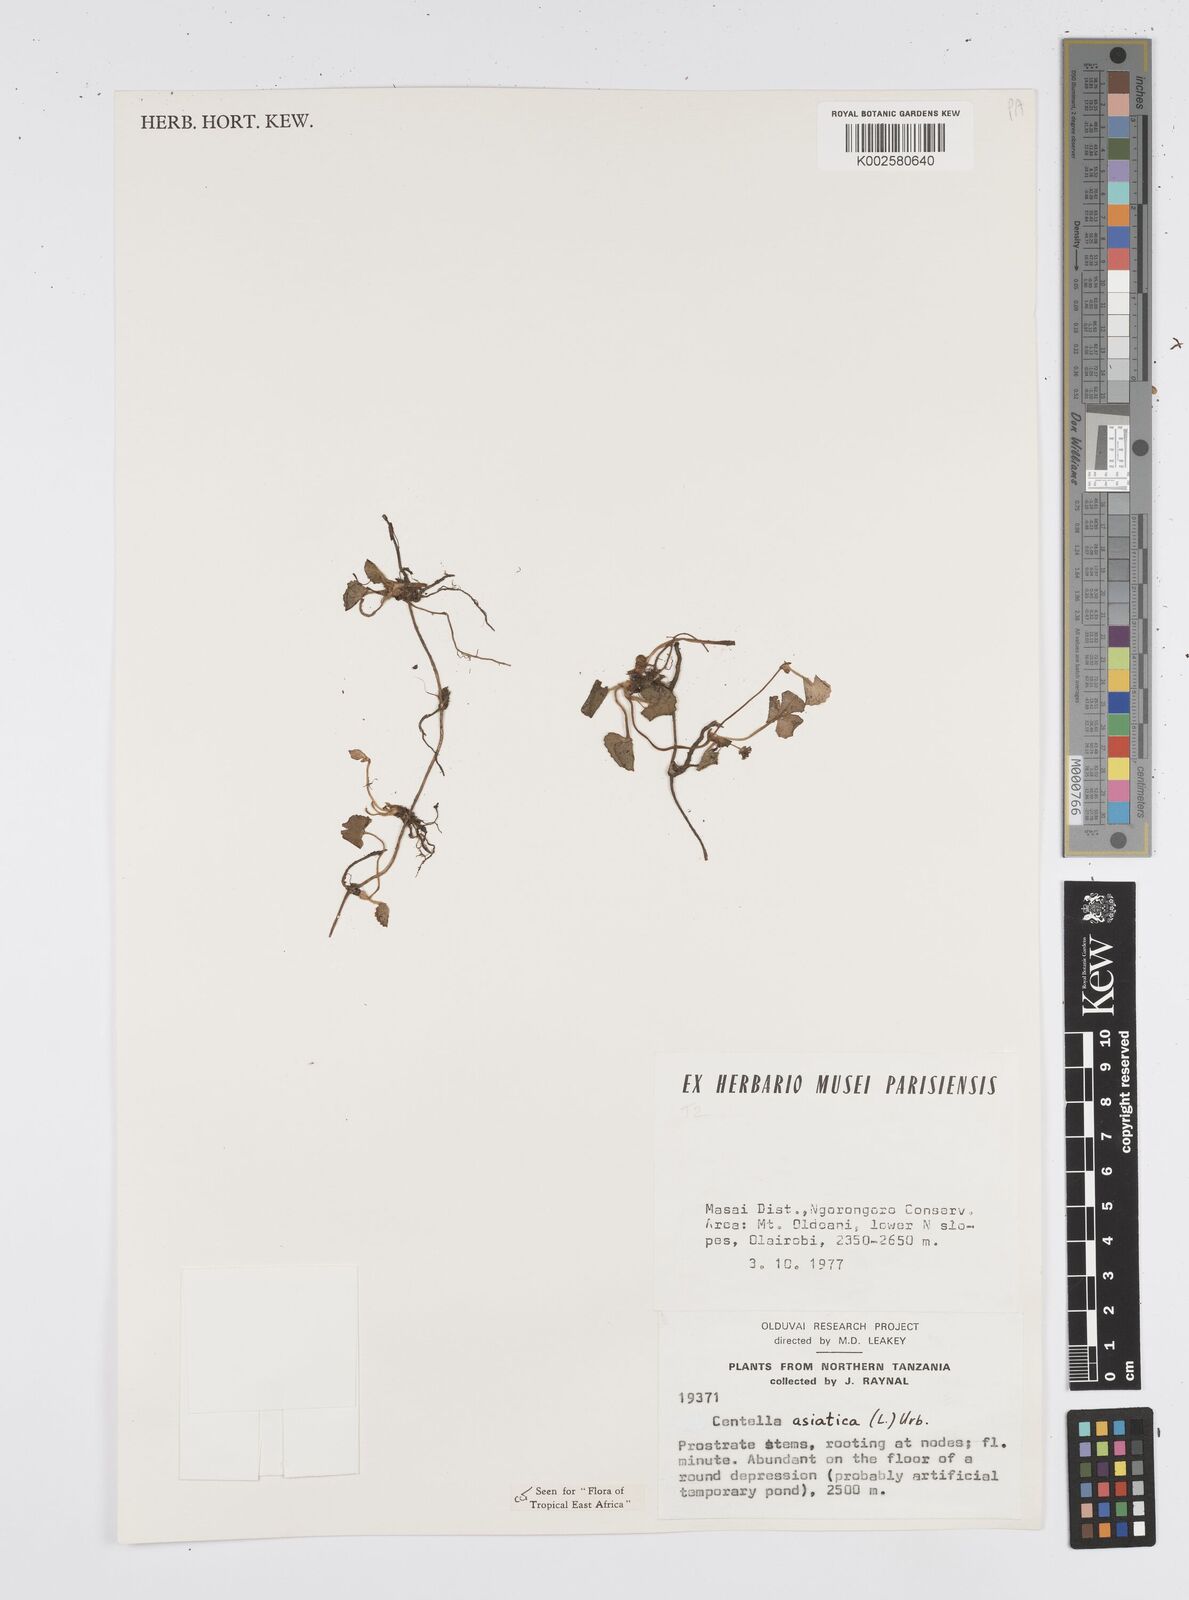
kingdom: Plantae
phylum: Tracheophyta
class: Magnoliopsida
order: Apiales
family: Apiaceae
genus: Centella
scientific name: Centella asiatica
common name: Spadeleaf
